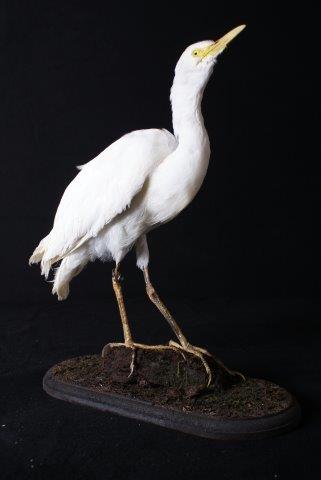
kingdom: Animalia
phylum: Chordata
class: Aves
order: Pelecaniformes
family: Ardeidae
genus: Bubulcus
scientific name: Bubulcus ibis
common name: Cattle egret
